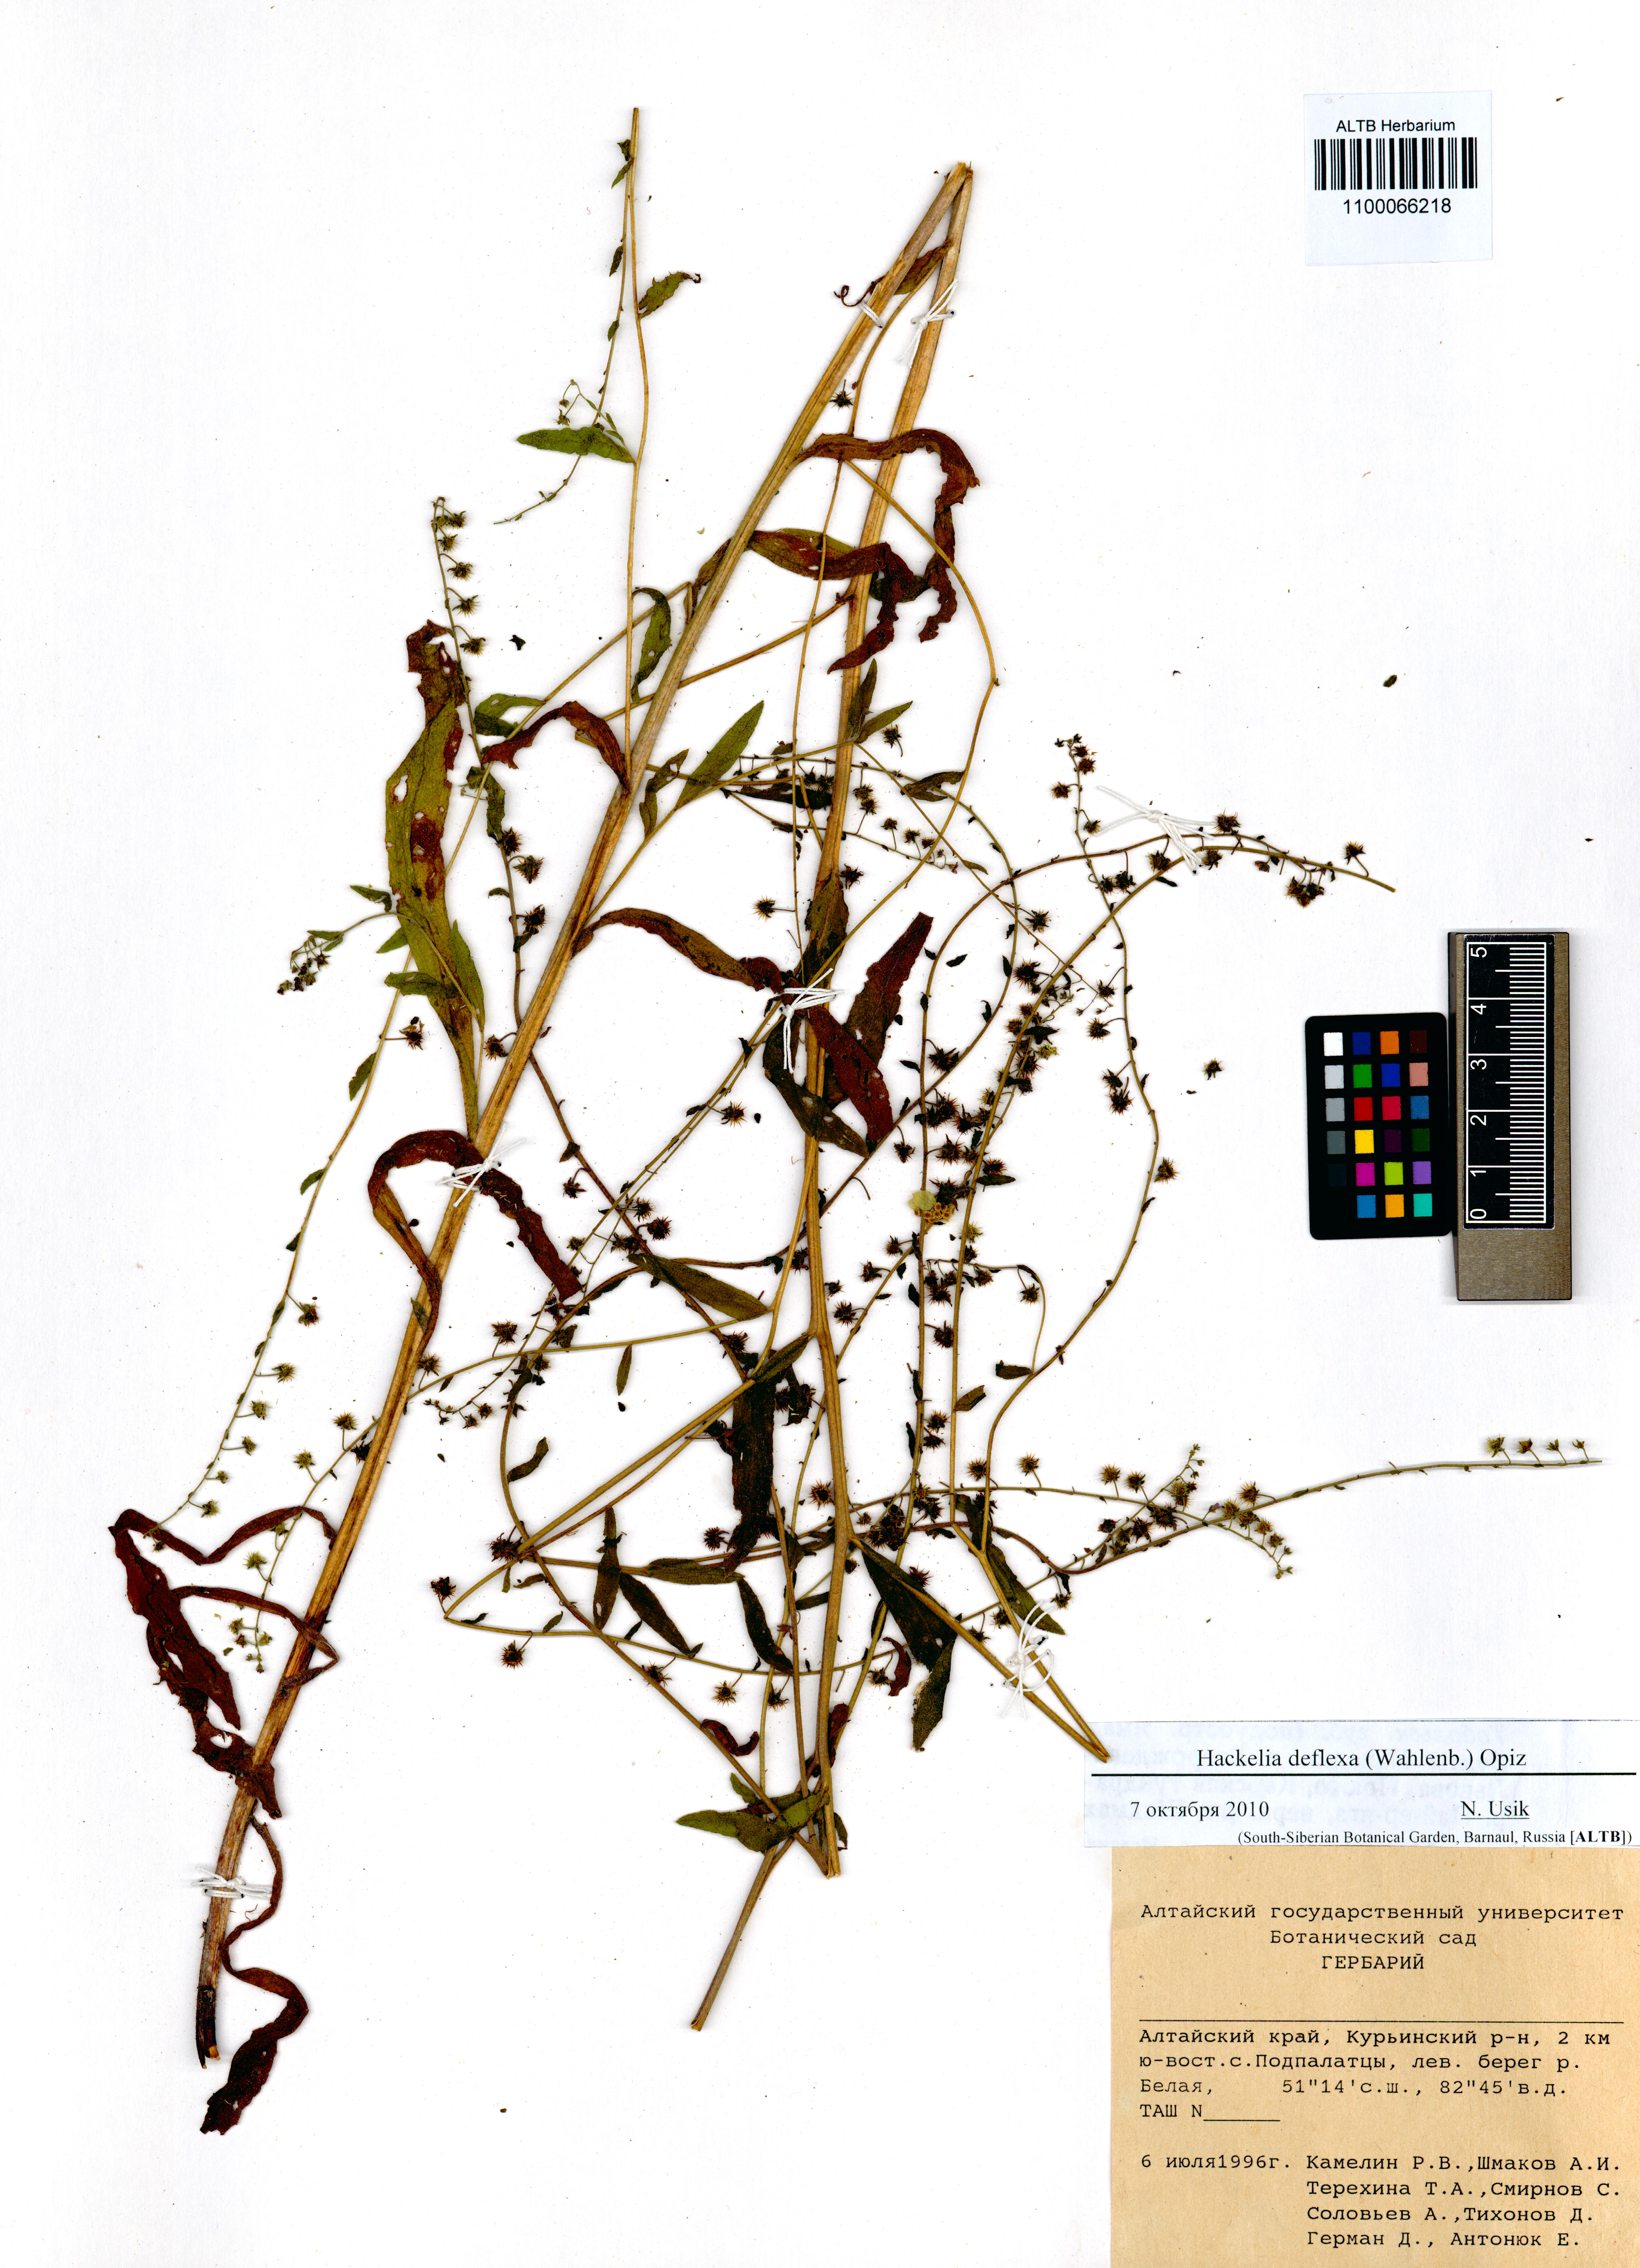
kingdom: Plantae
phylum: Tracheophyta
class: Magnoliopsida
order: Boraginales
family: Boraginaceae
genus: Hackelia
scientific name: Hackelia deflexa
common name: Nodding stickseed
